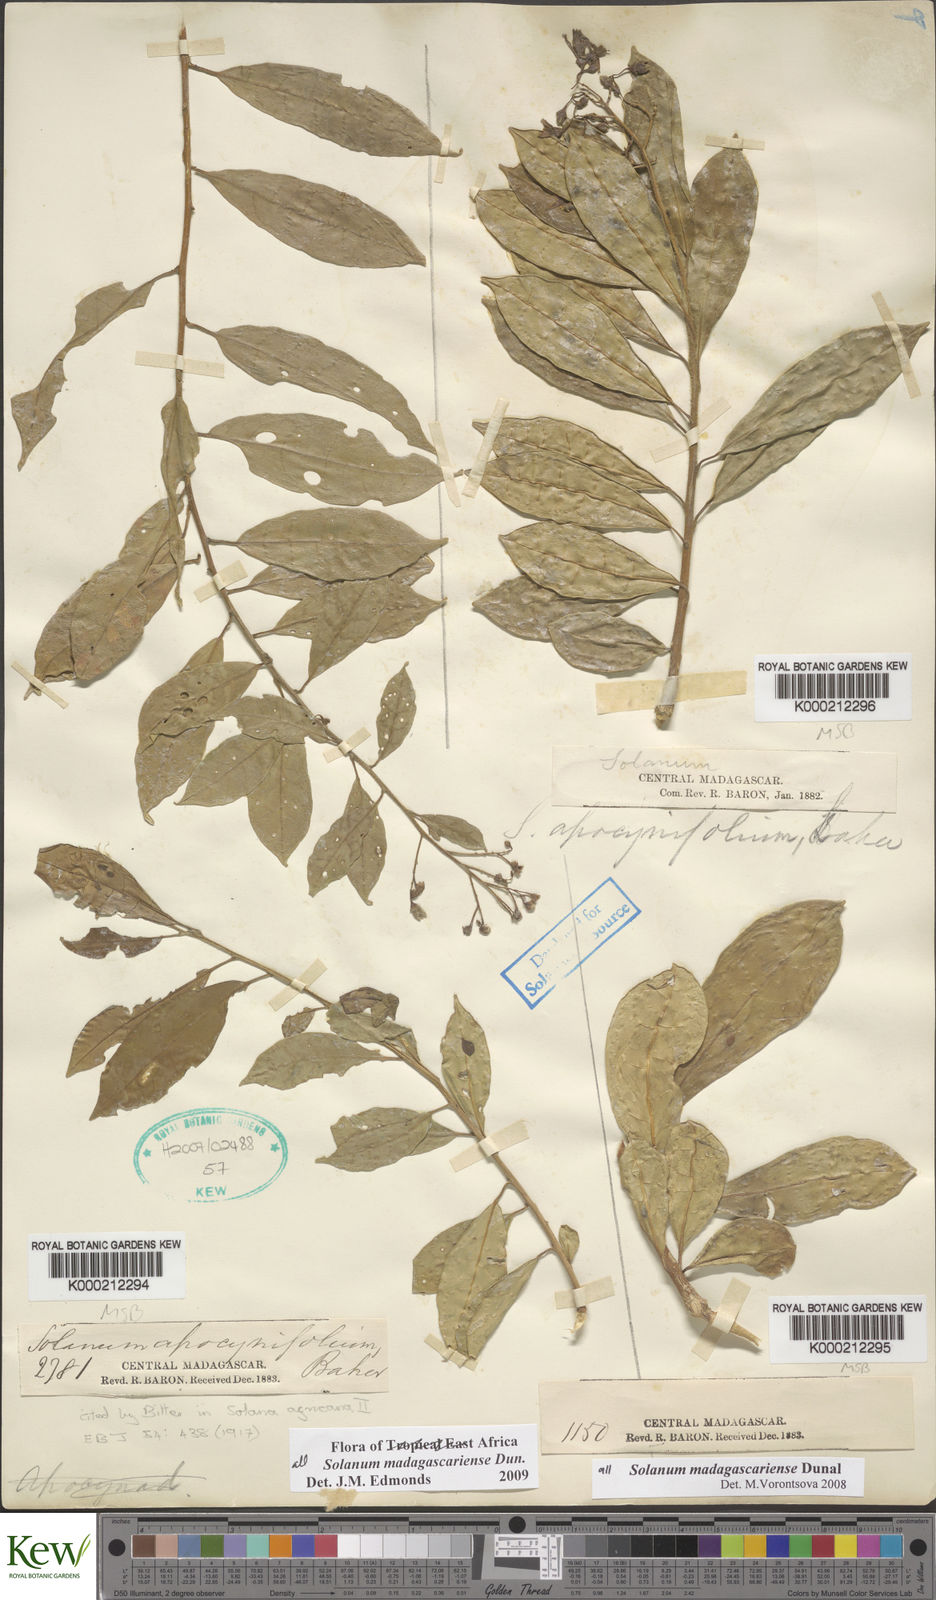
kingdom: Plantae
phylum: Tracheophyta
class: Magnoliopsida
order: Solanales
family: Solanaceae
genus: Solanum
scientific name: Solanum madagascariense
